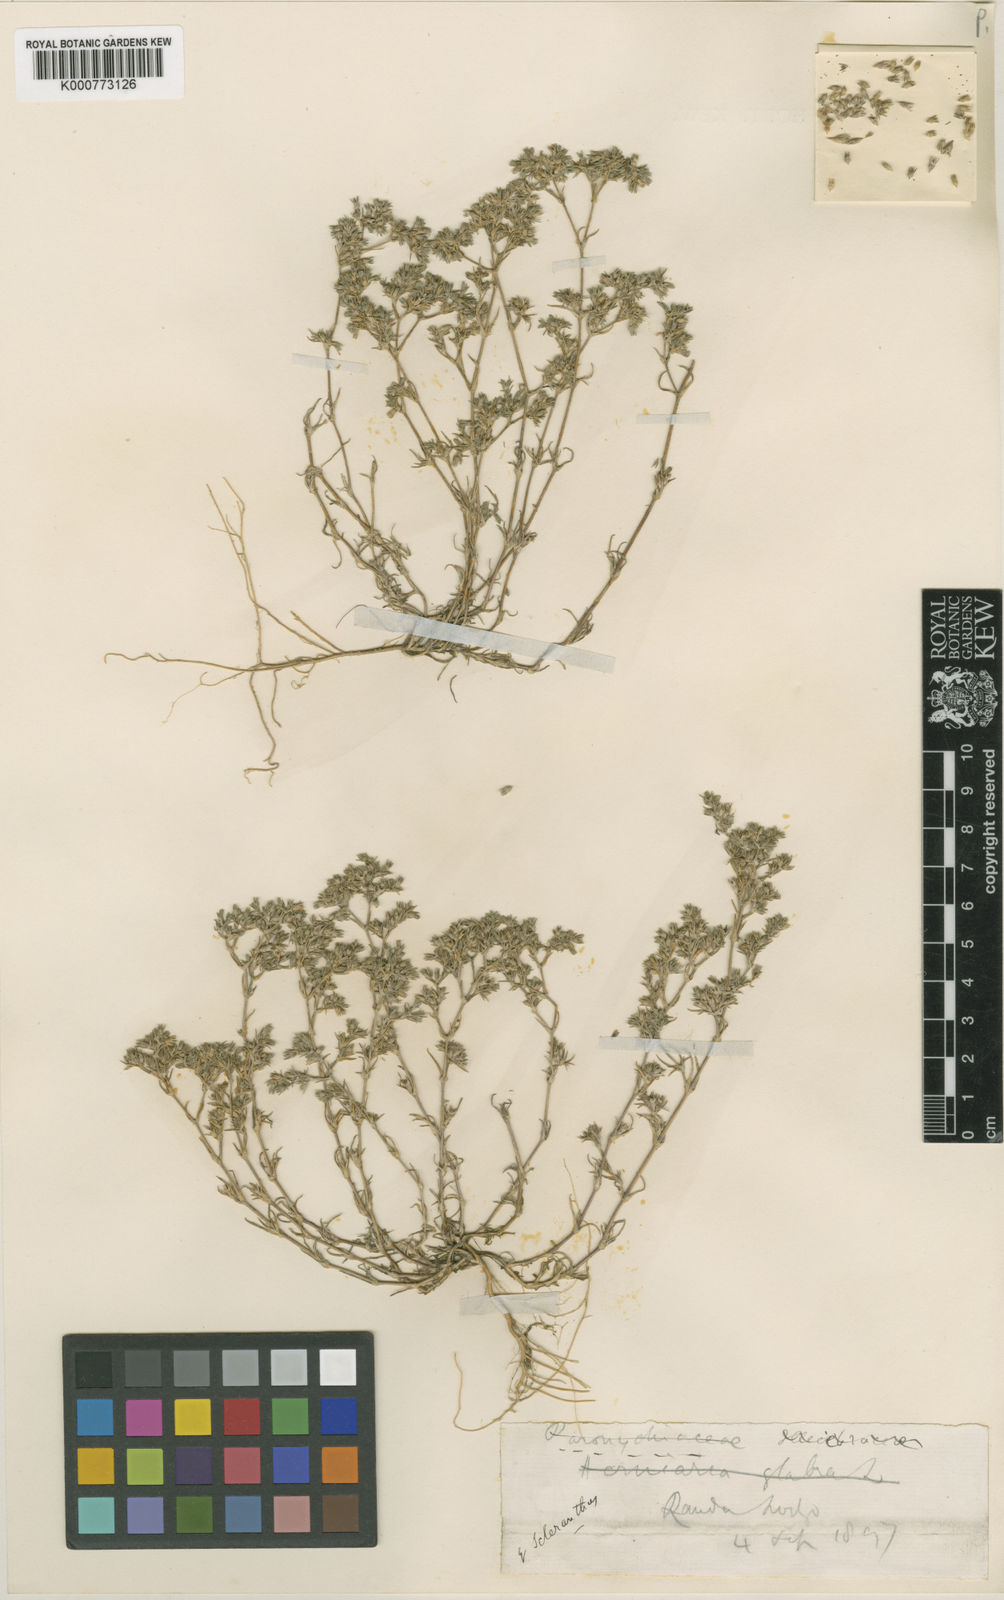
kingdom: Plantae
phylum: Tracheophyta
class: Magnoliopsida
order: Caryophyllales
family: Caryophyllaceae
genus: Scleranthus
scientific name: Scleranthus annuus
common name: Annual knawel
